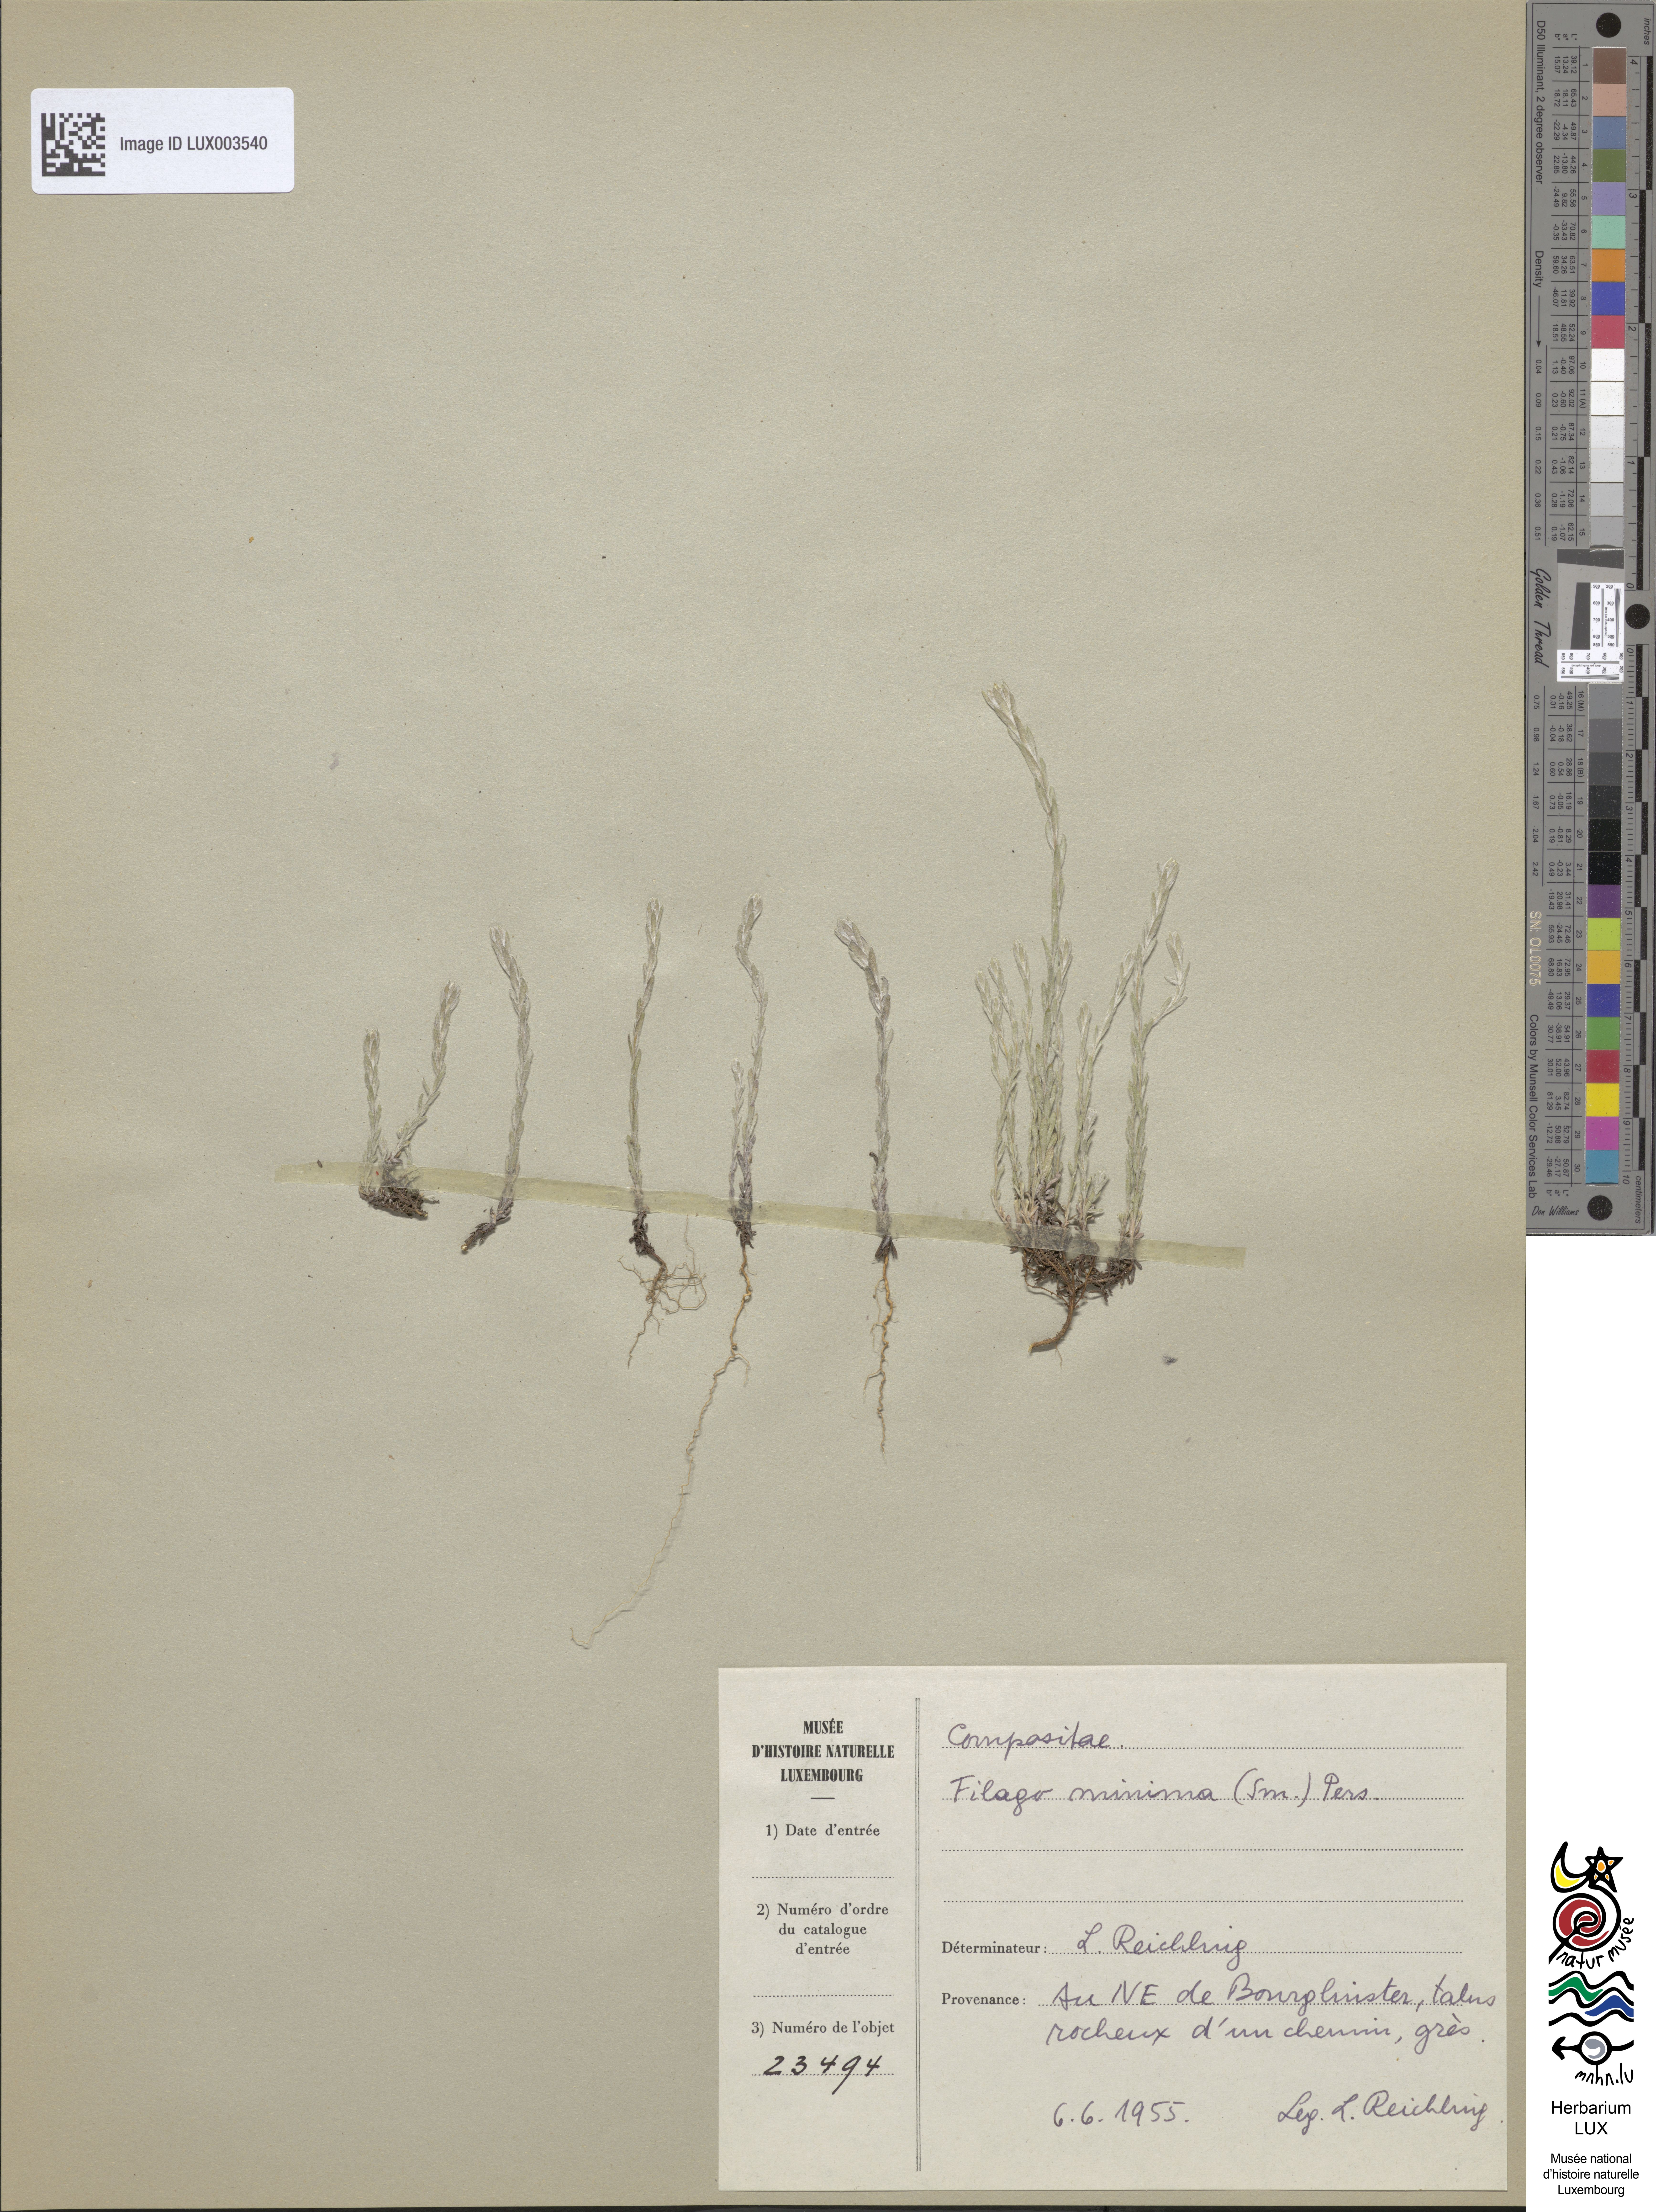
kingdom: Plantae
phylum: Tracheophyta
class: Magnoliopsida
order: Asterales
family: Asteraceae
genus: Logfia
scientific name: Logfia minima
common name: Little cottonrose
